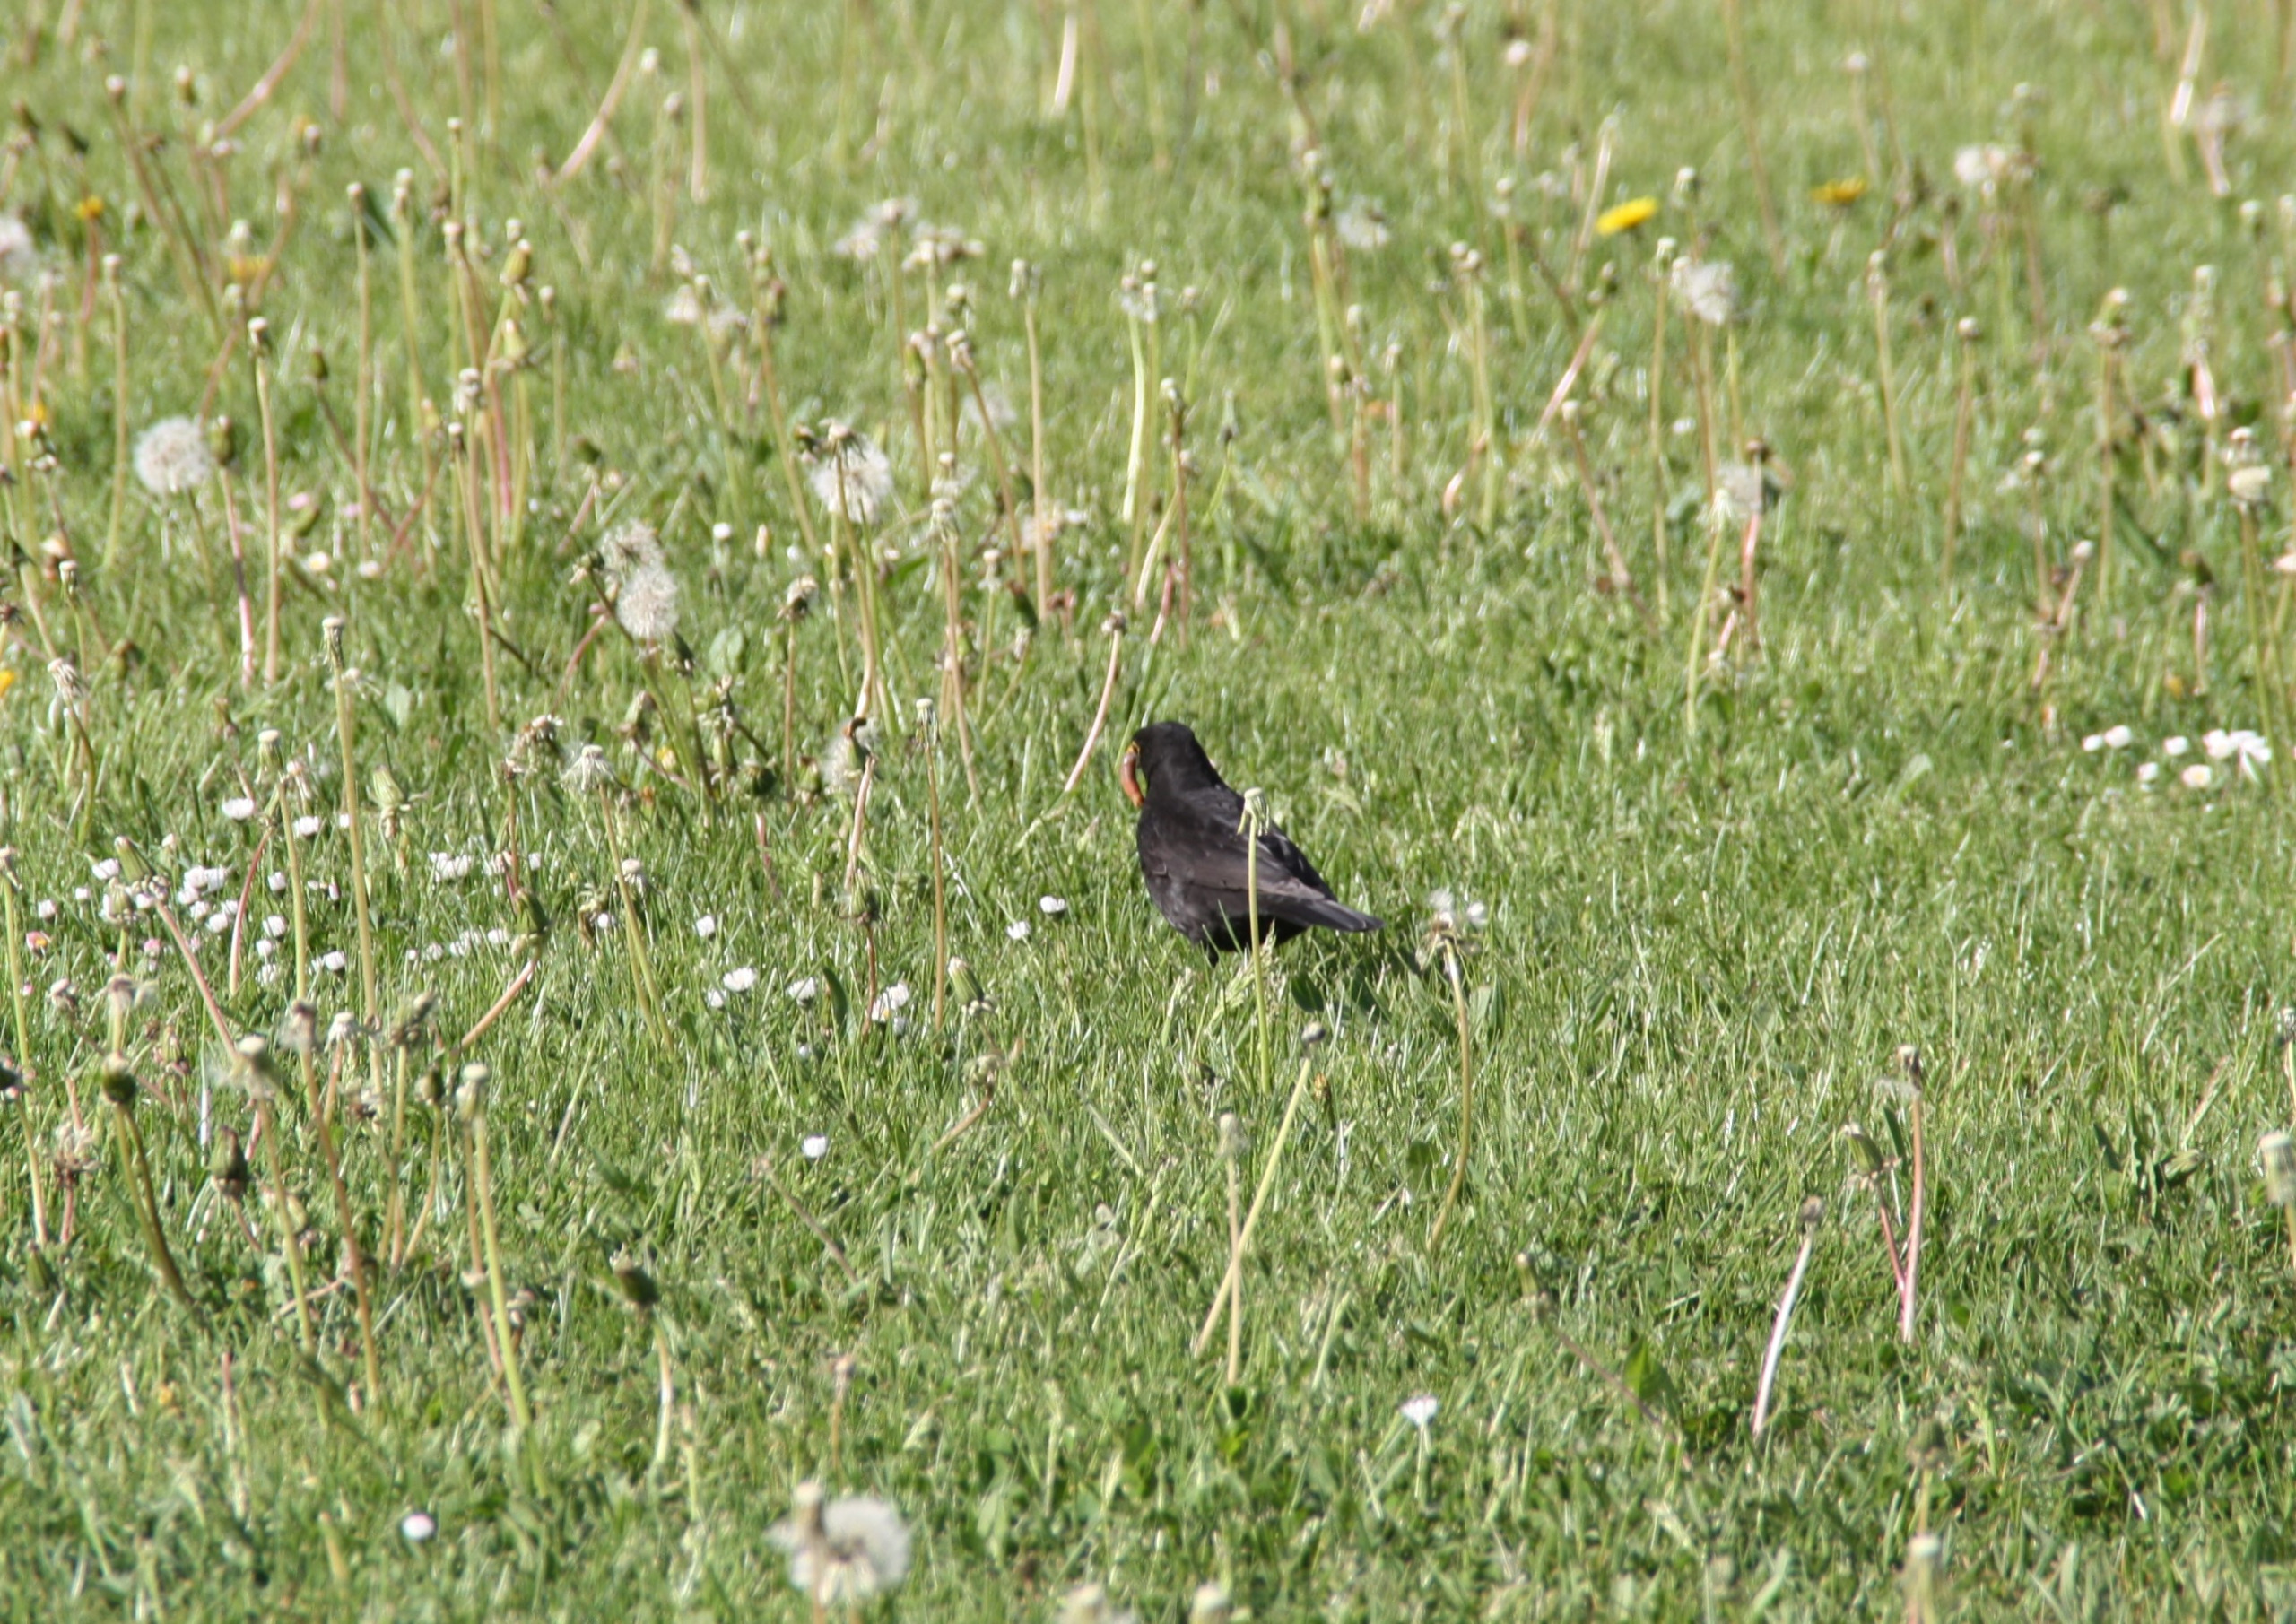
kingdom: Animalia
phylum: Chordata
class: Aves
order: Passeriformes
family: Turdidae
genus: Turdus
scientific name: Turdus merula
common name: Solsort
